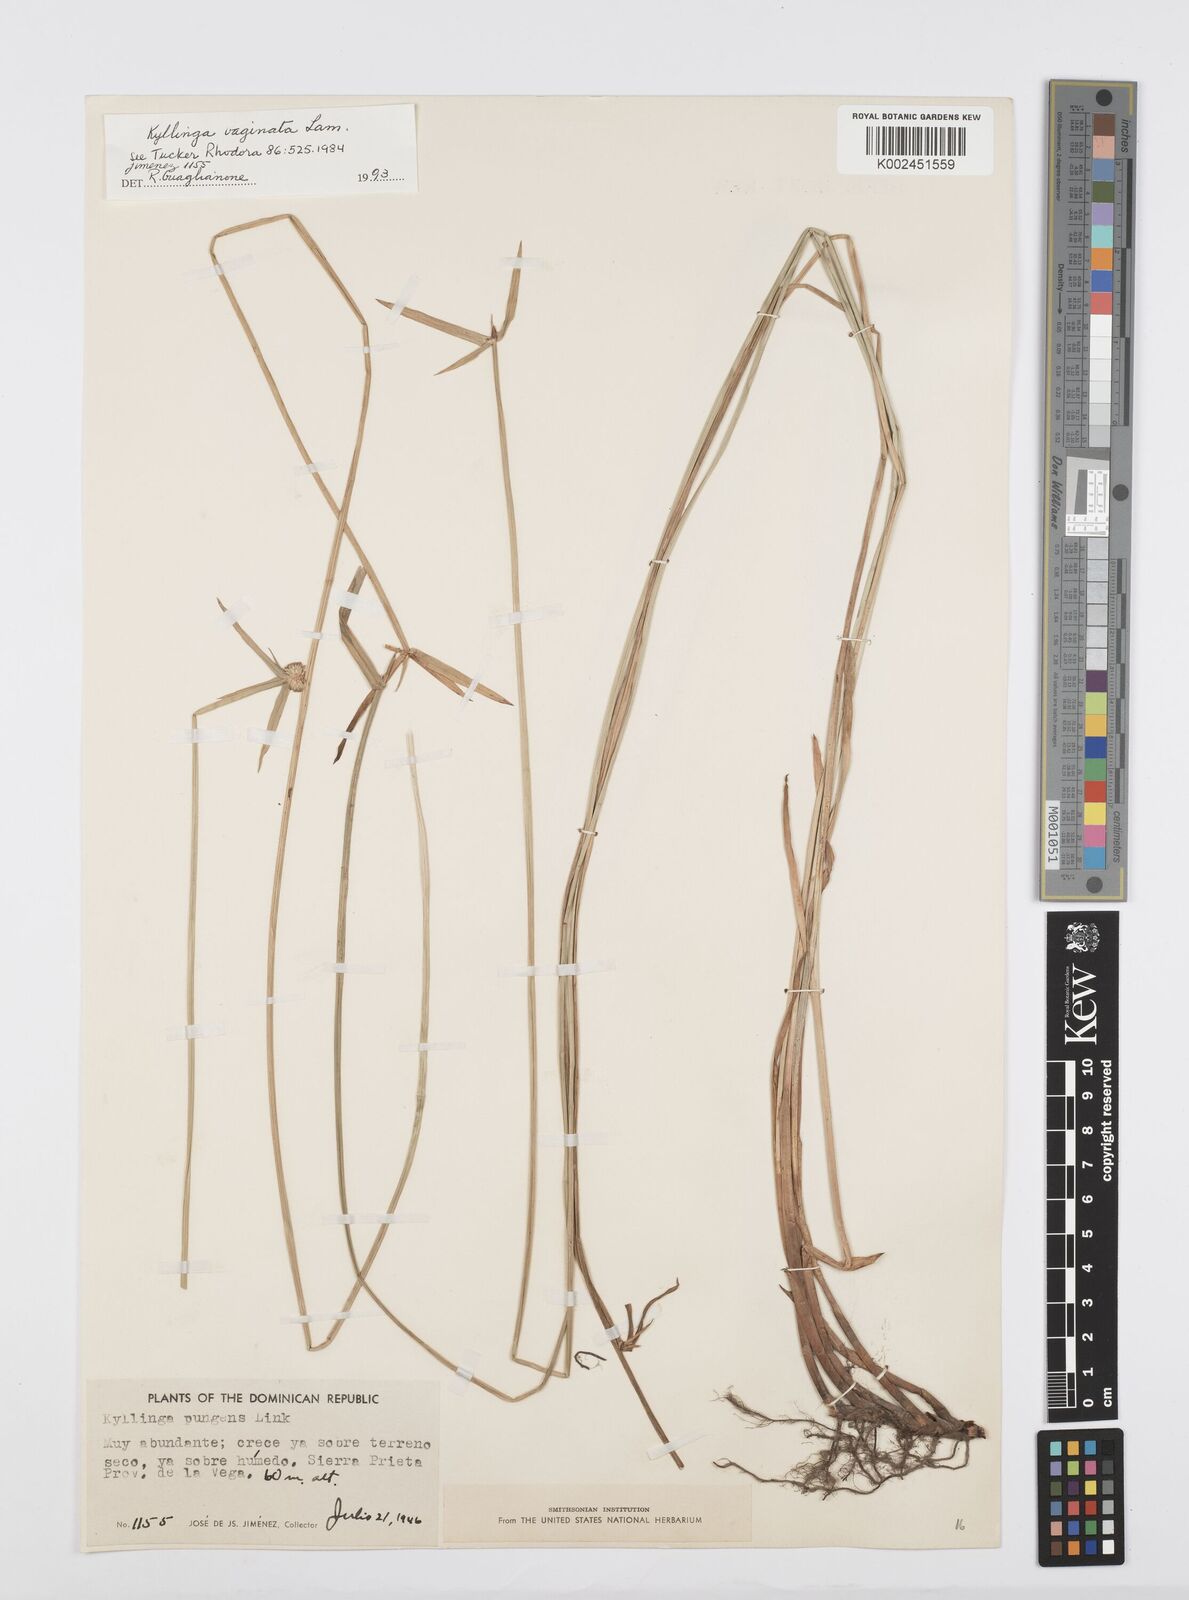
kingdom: Plantae
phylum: Tracheophyta
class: Liliopsida
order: Poales
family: Cyperaceae
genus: Cyperus
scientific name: Cyperus obtusatus
